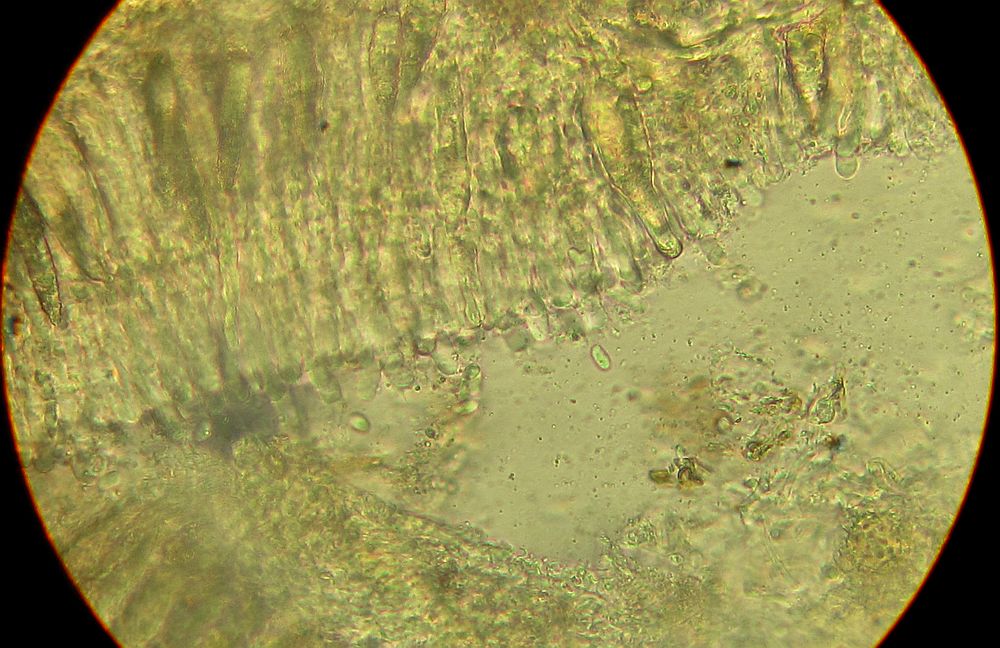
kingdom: Fungi
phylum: Basidiomycota
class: Agaricomycetes
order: Russulales
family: Peniophoraceae
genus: Peniophora
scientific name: Peniophora incarnata
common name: laksefarvet voksskind
